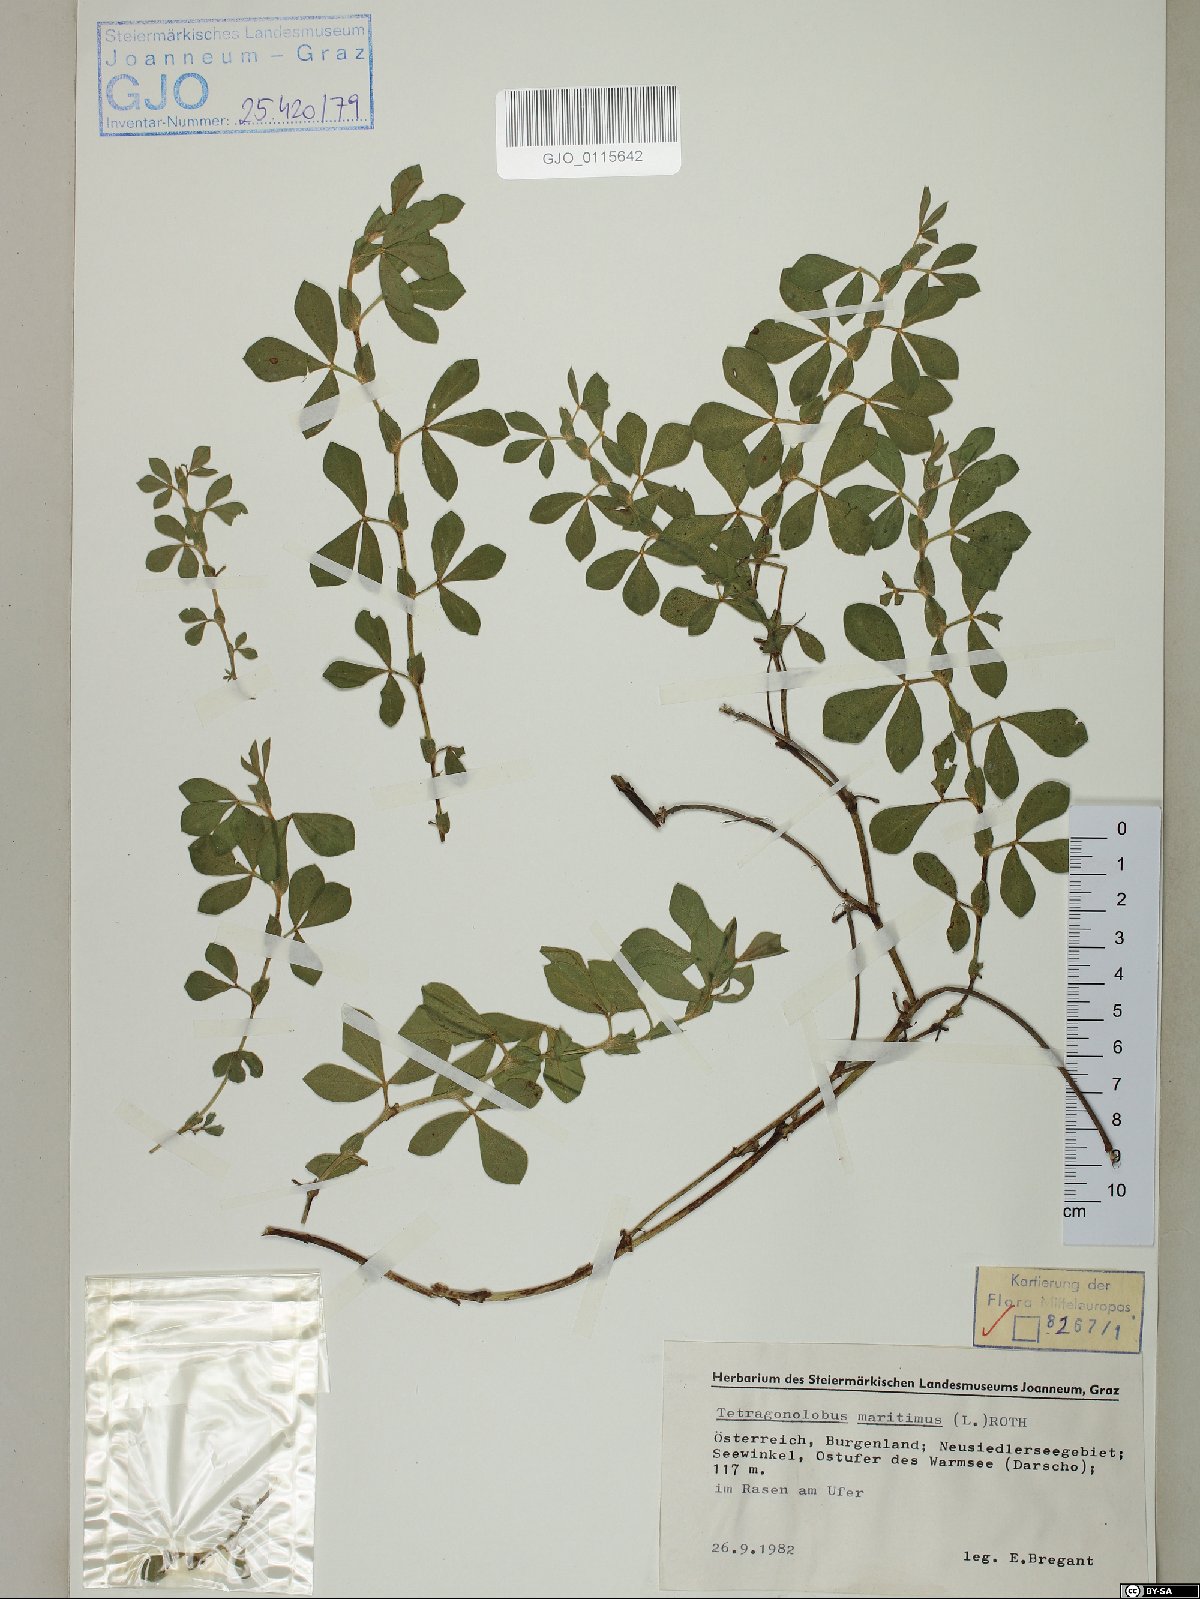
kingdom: Plantae
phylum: Tracheophyta
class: Magnoliopsida
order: Fabales
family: Fabaceae
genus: Lotus
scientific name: Lotus maritimus
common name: Dragon's-teeth
